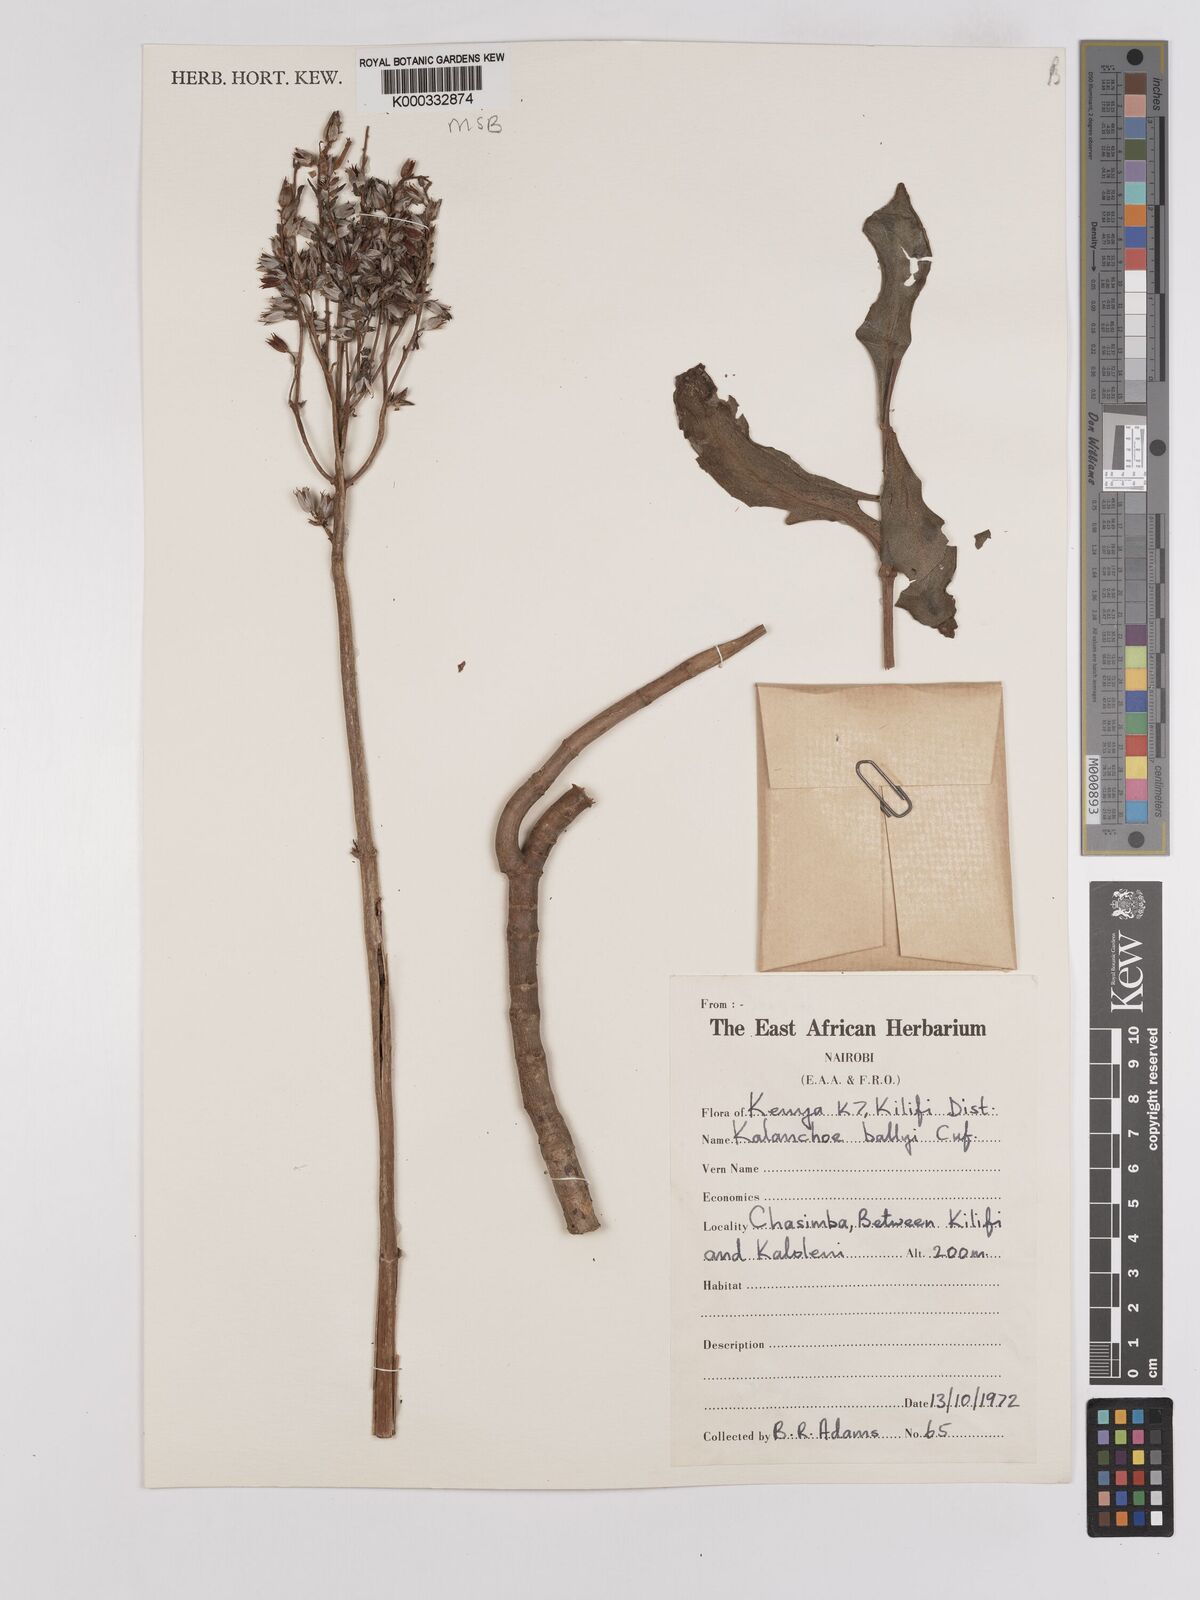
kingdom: Plantae
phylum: Tracheophyta
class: Magnoliopsida
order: Saxifragales
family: Crassulaceae
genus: Kalanchoe
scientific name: Kalanchoe ballyi
